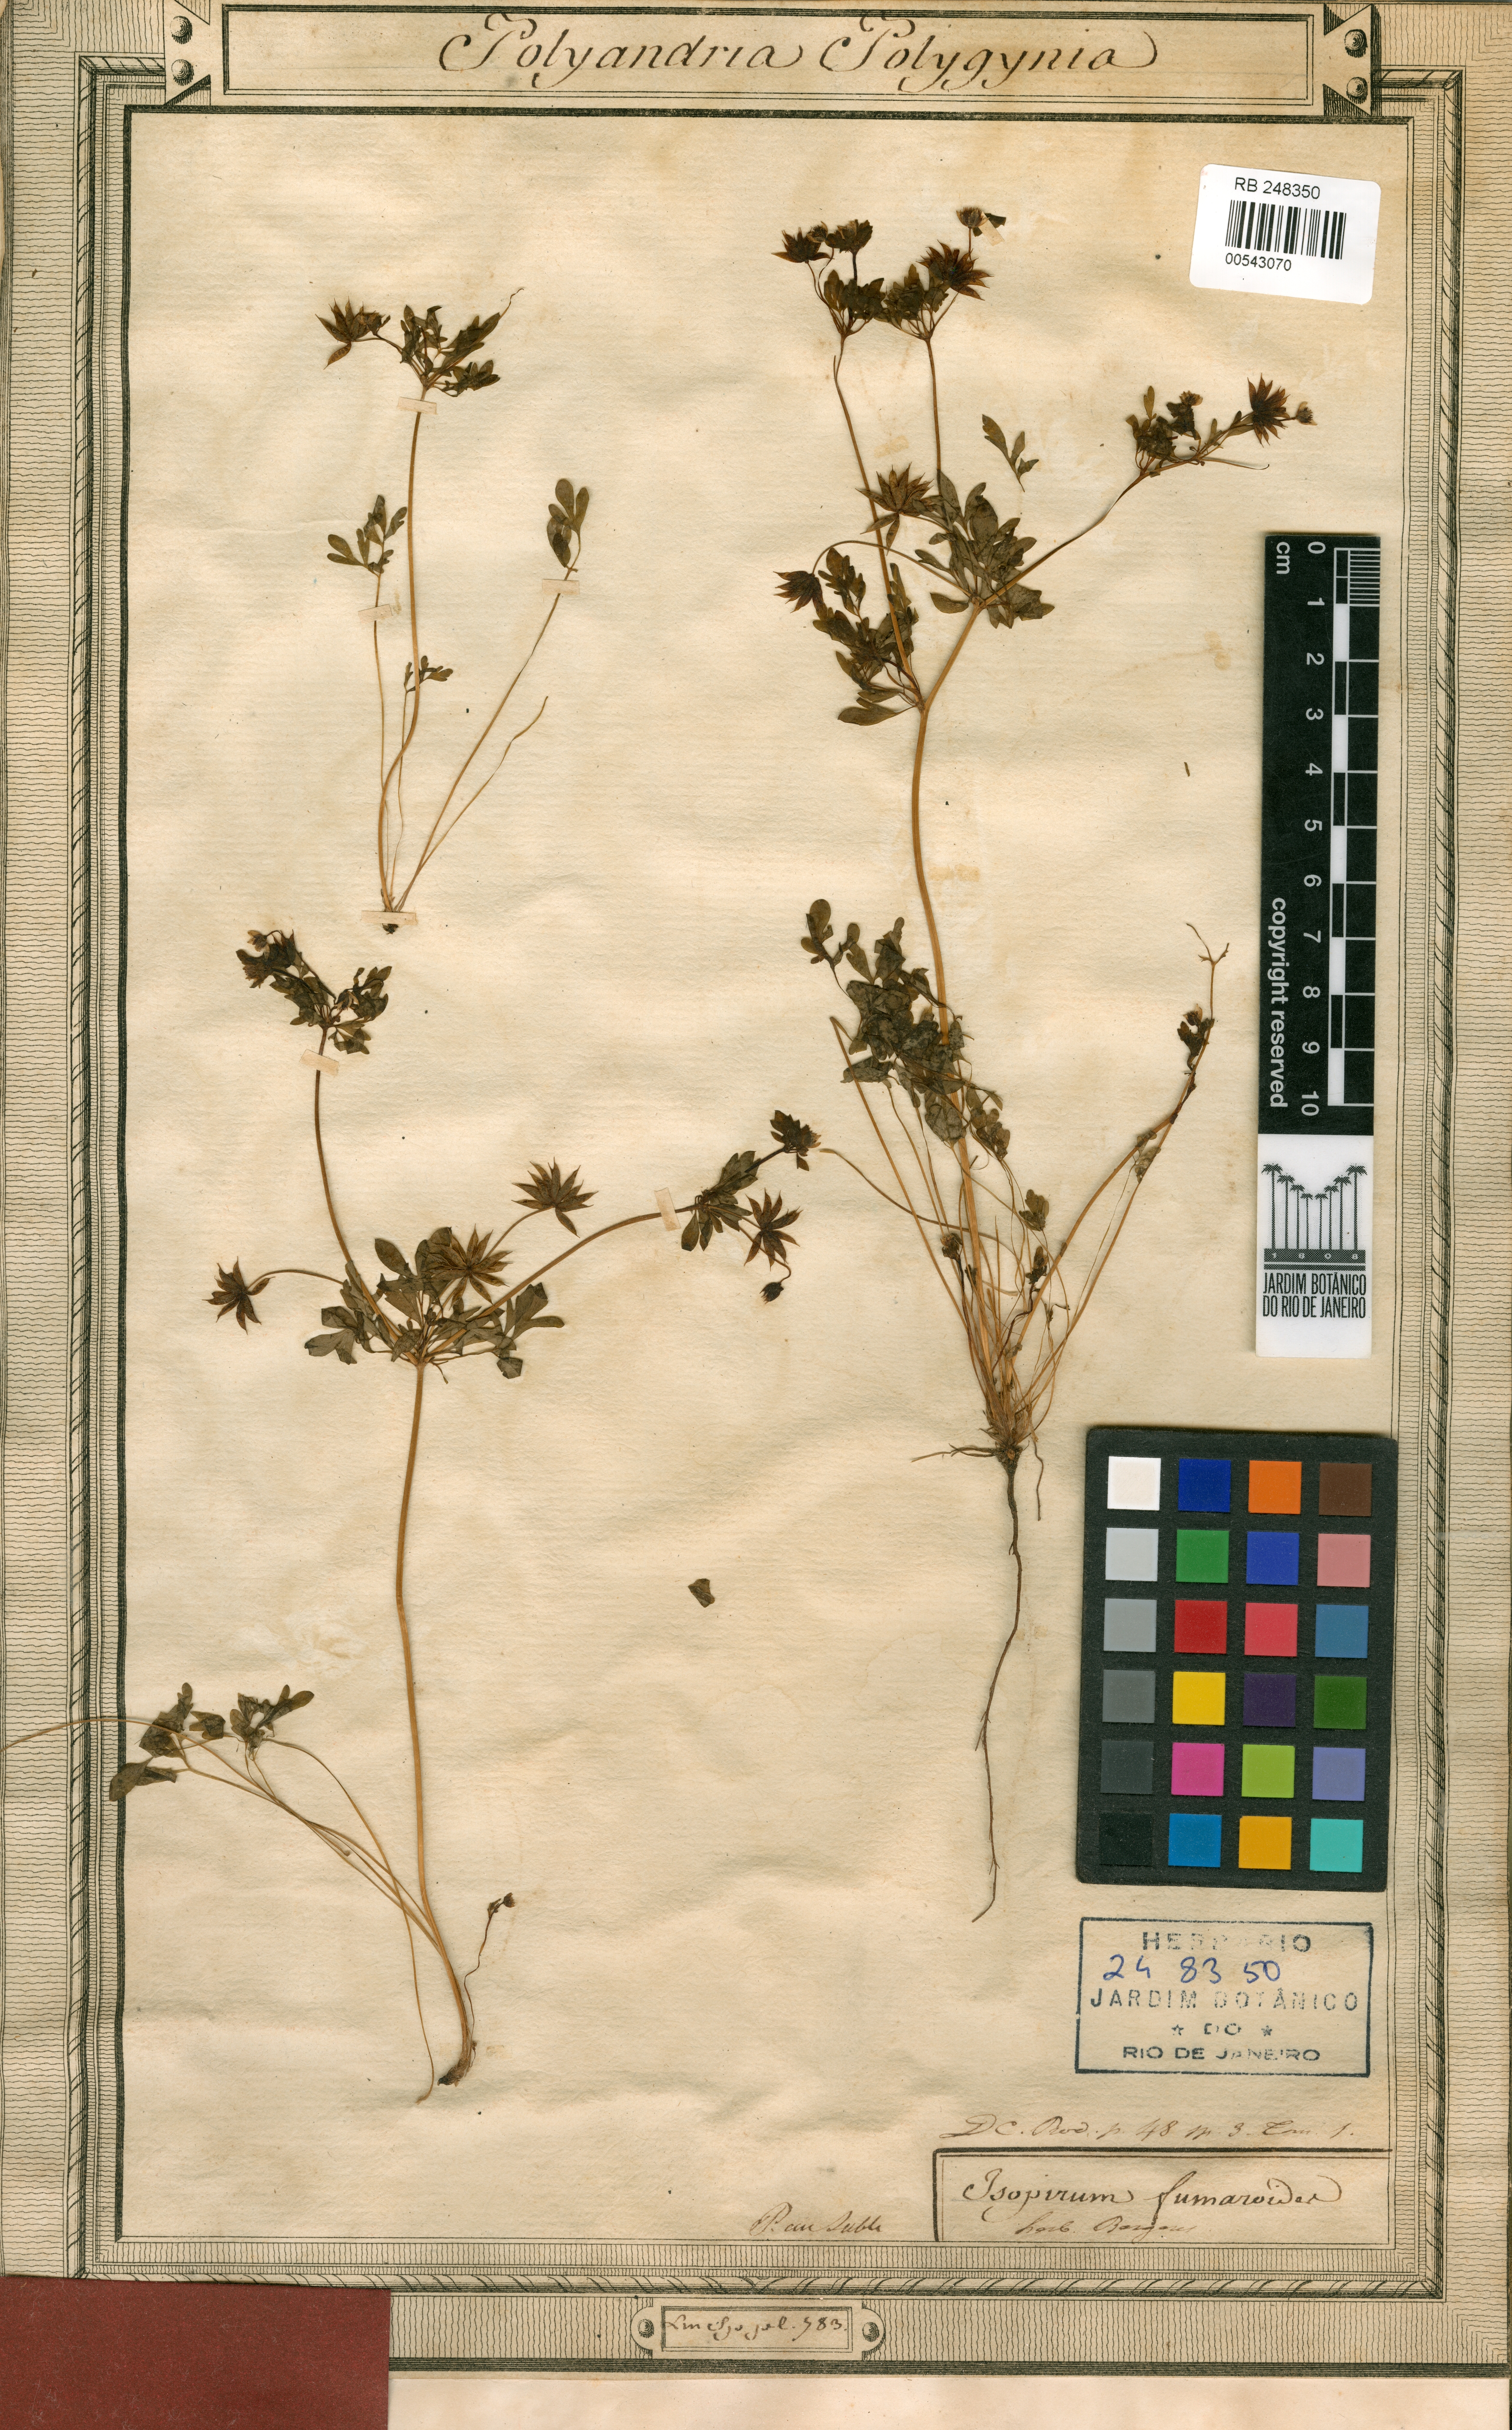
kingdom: Plantae
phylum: Tracheophyta
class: Magnoliopsida
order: Ranunculales
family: Ranunculaceae
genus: Leptopyrum
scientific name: Leptopyrum fumarioides
